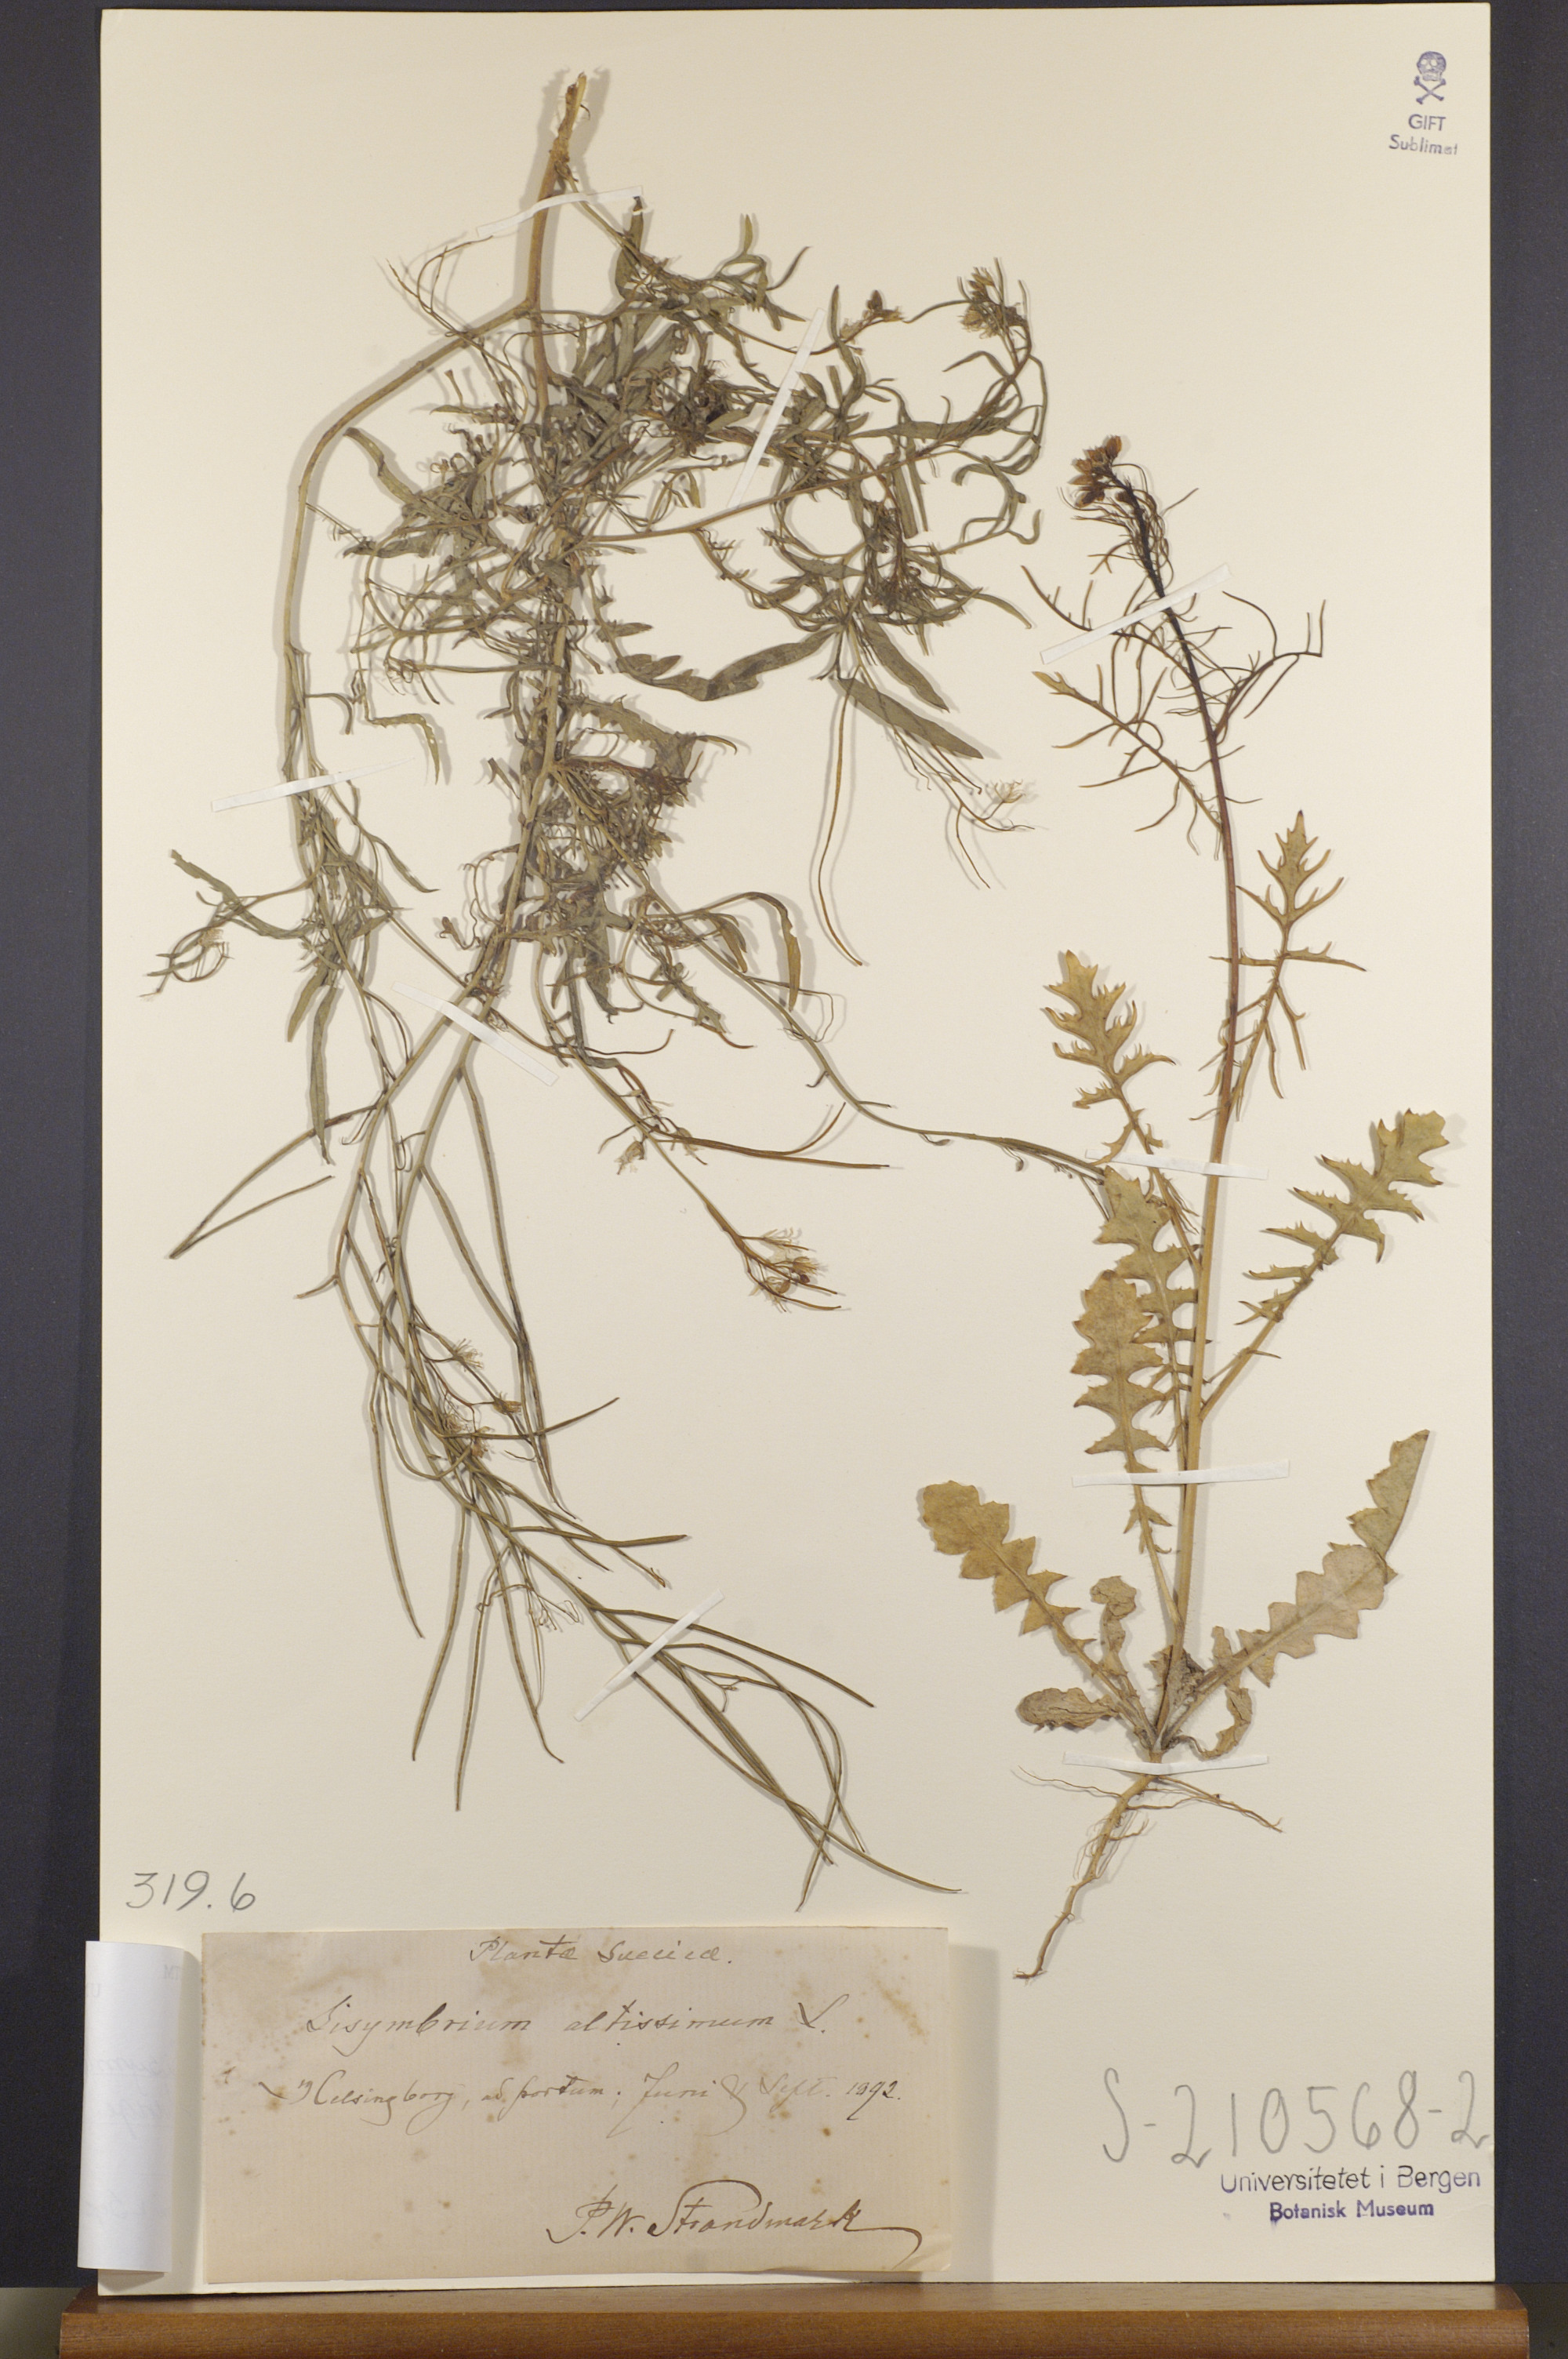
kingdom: Plantae
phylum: Tracheophyta
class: Magnoliopsida
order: Brassicales
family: Brassicaceae
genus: Sisymbrium
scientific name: Sisymbrium altissimum
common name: Tall rocket
